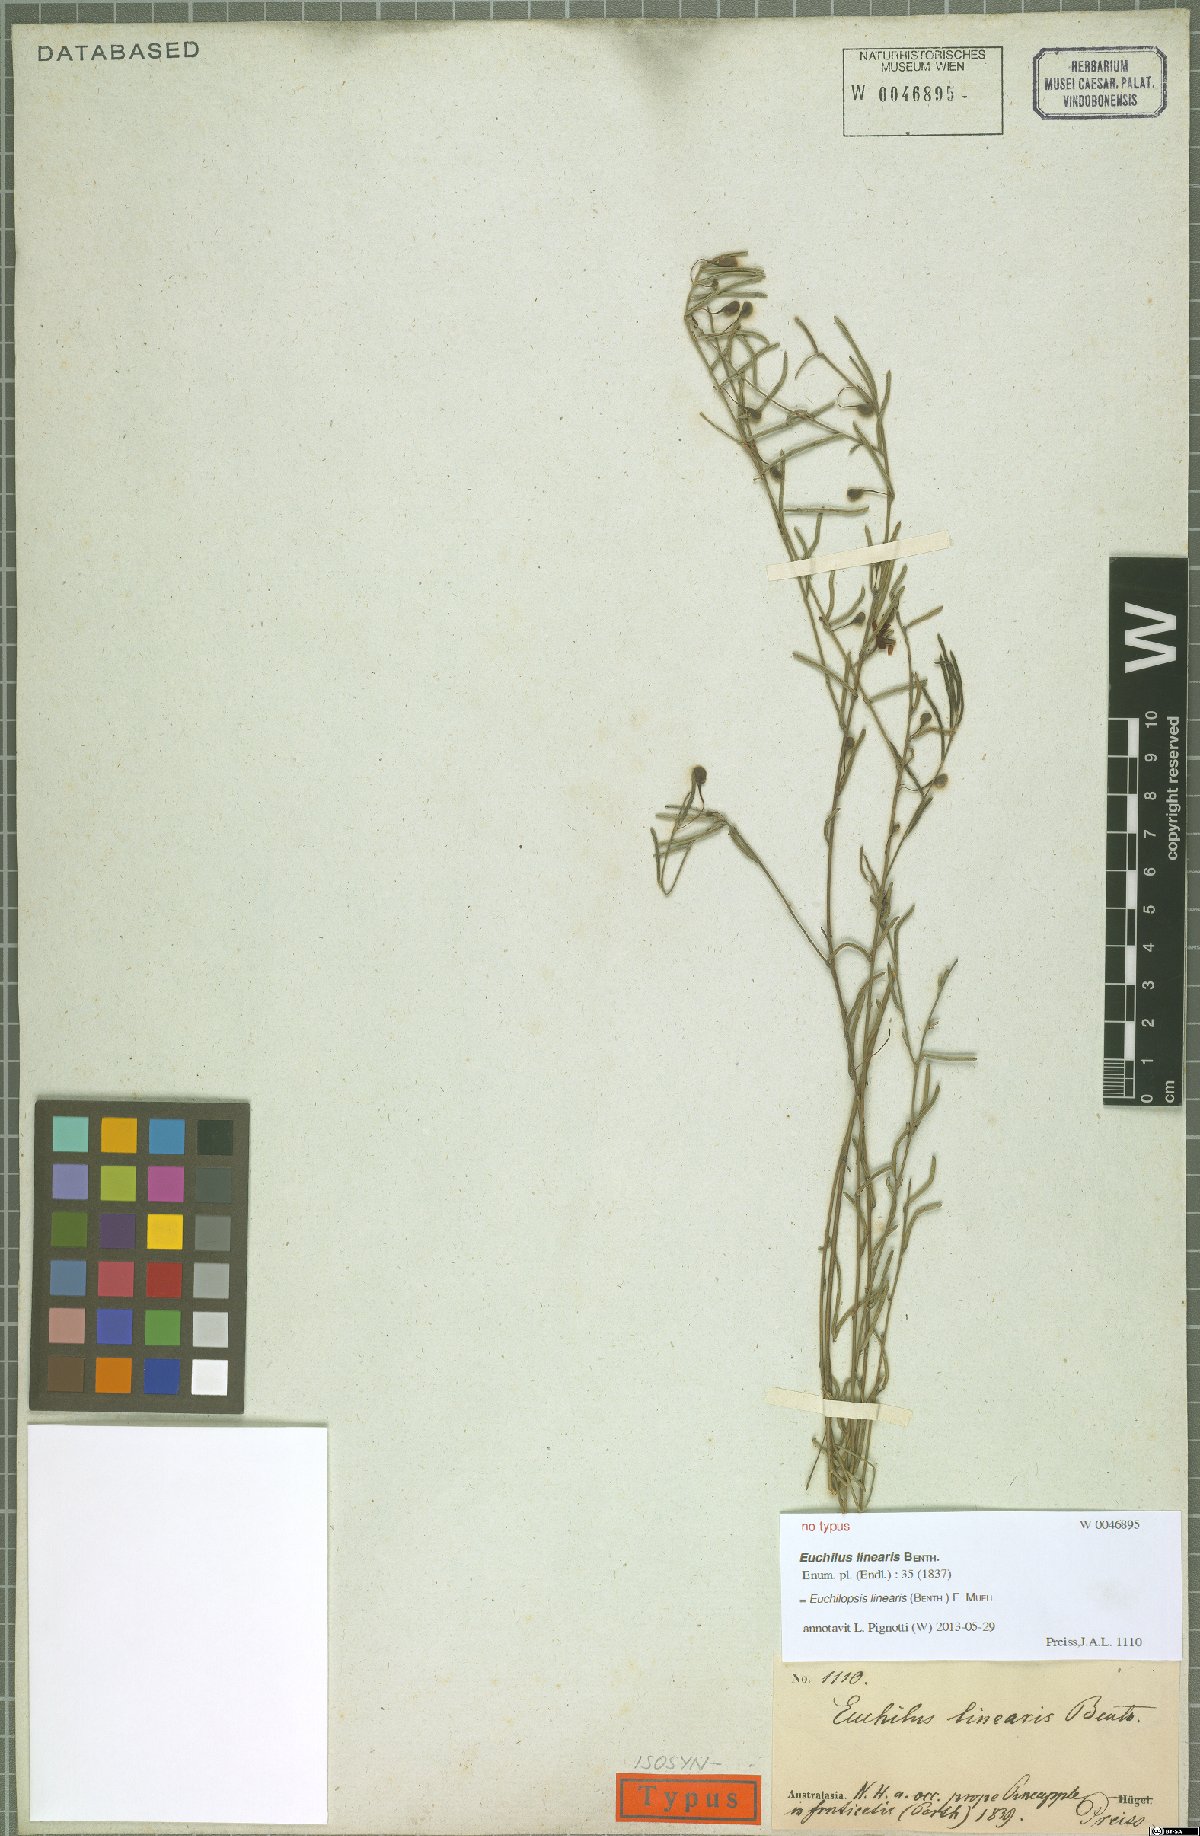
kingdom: Plantae
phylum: Tracheophyta
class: Magnoliopsida
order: Fabales
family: Fabaceae
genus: Euchilopsis
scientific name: Euchilopsis linearis
